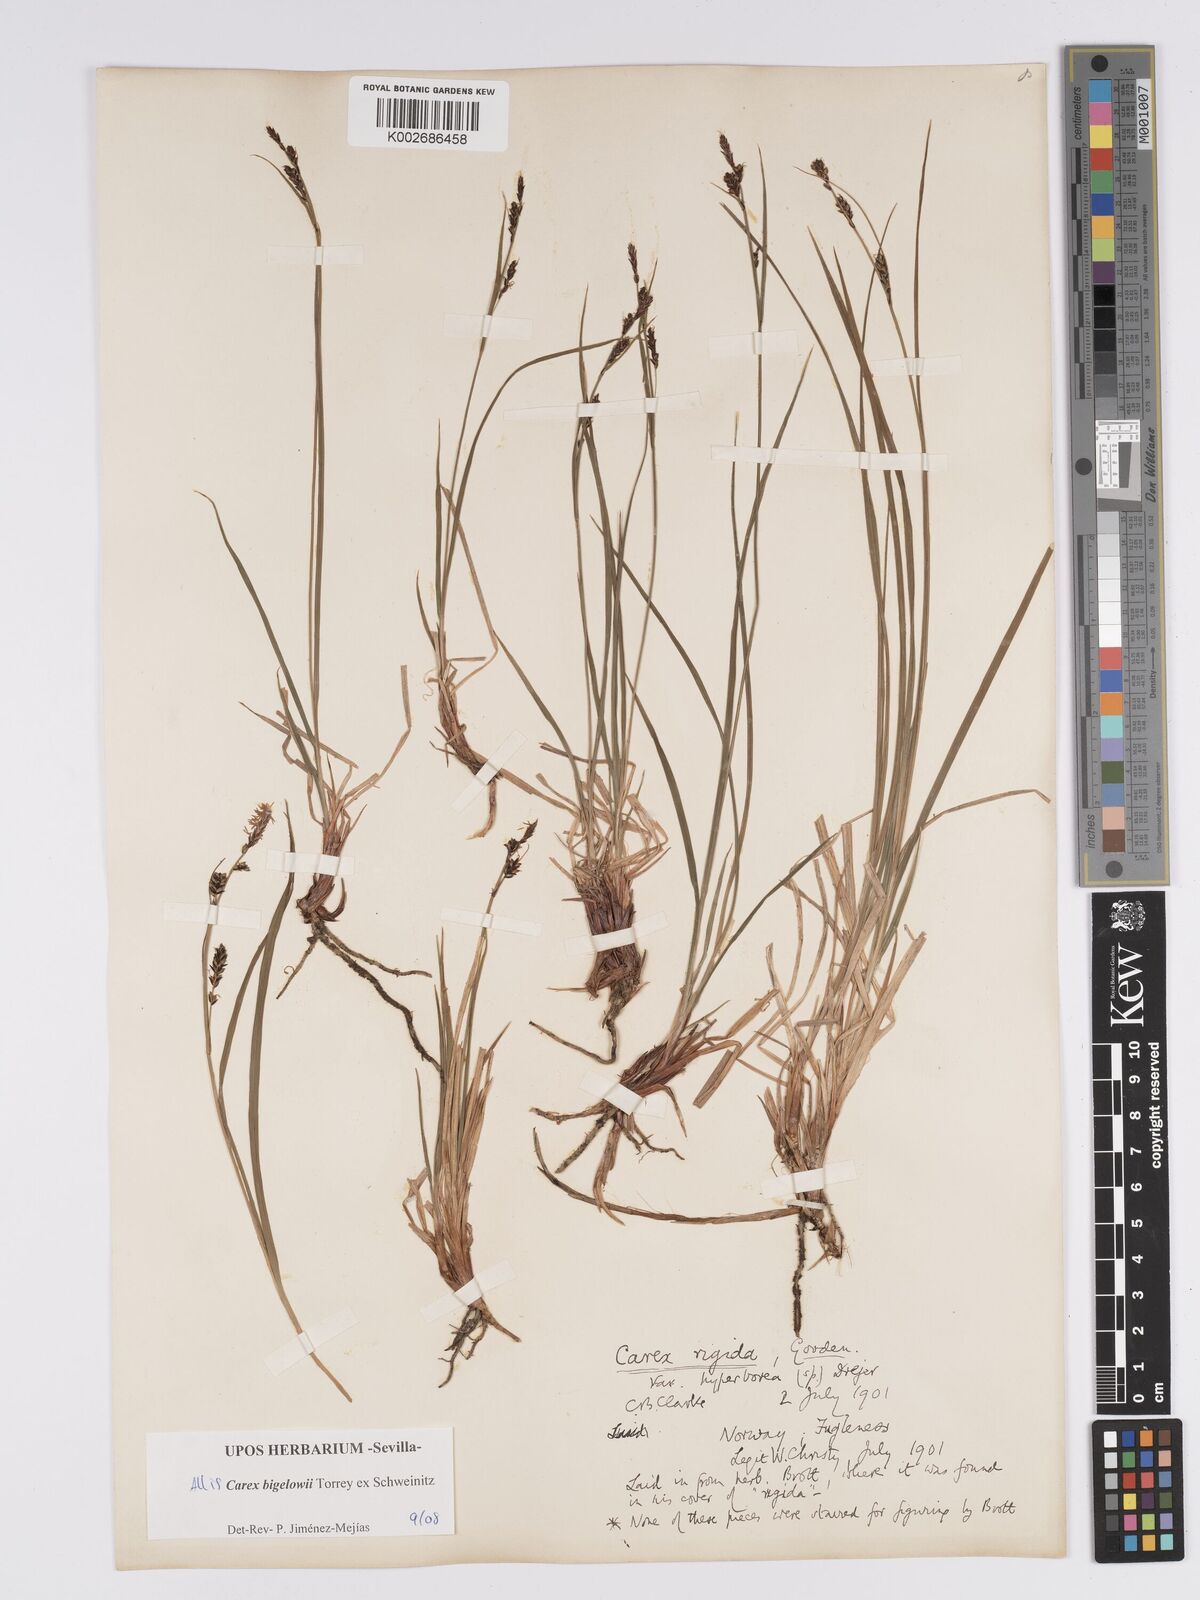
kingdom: Plantae
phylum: Tracheophyta
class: Liliopsida
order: Poales
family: Cyperaceae
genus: Carex
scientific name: Carex bigelowii
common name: Stiff sedge
